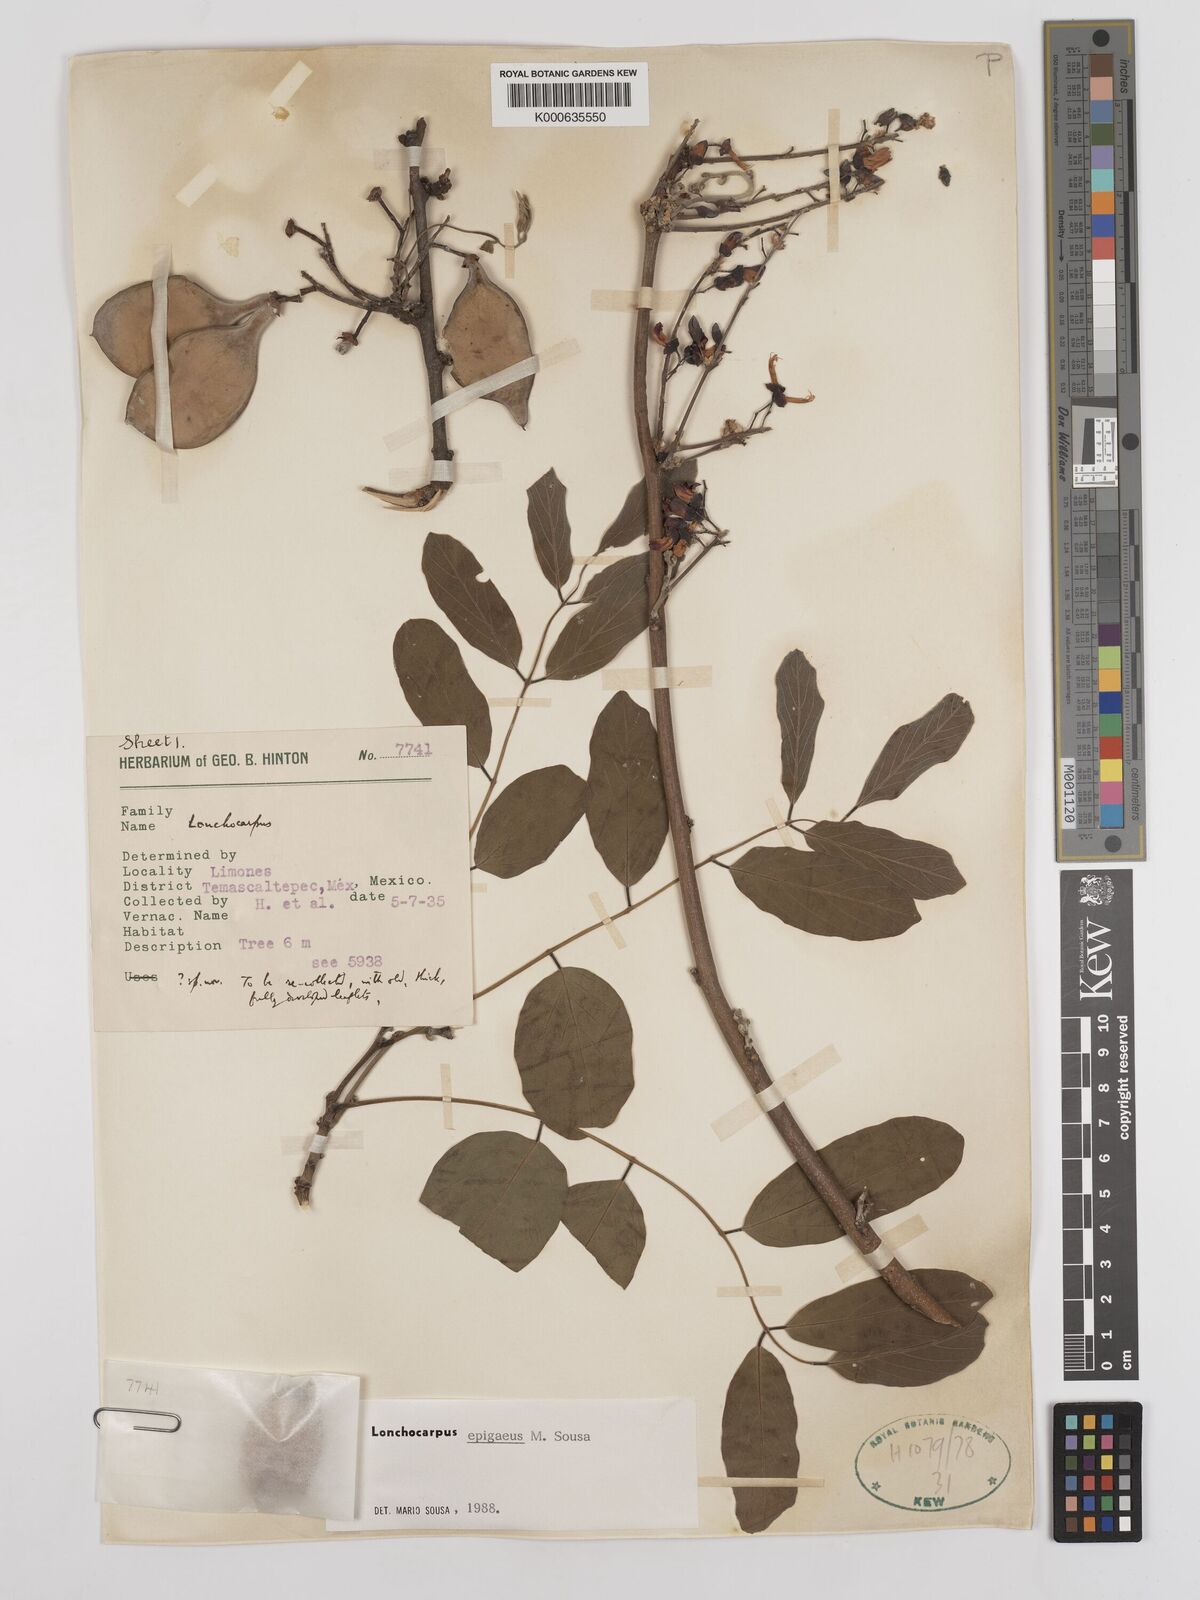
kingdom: Plantae
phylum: Tracheophyta
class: Magnoliopsida
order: Fabales
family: Fabaceae
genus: Lonchocarpus
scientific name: Lonchocarpus epigaeus
